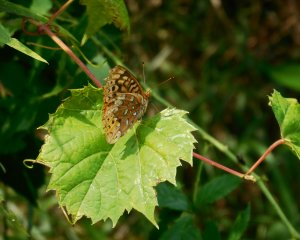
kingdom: Animalia
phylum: Arthropoda
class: Insecta
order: Lepidoptera
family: Nymphalidae
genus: Speyeria
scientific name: Speyeria cybele
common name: Great Spangled Fritillary
